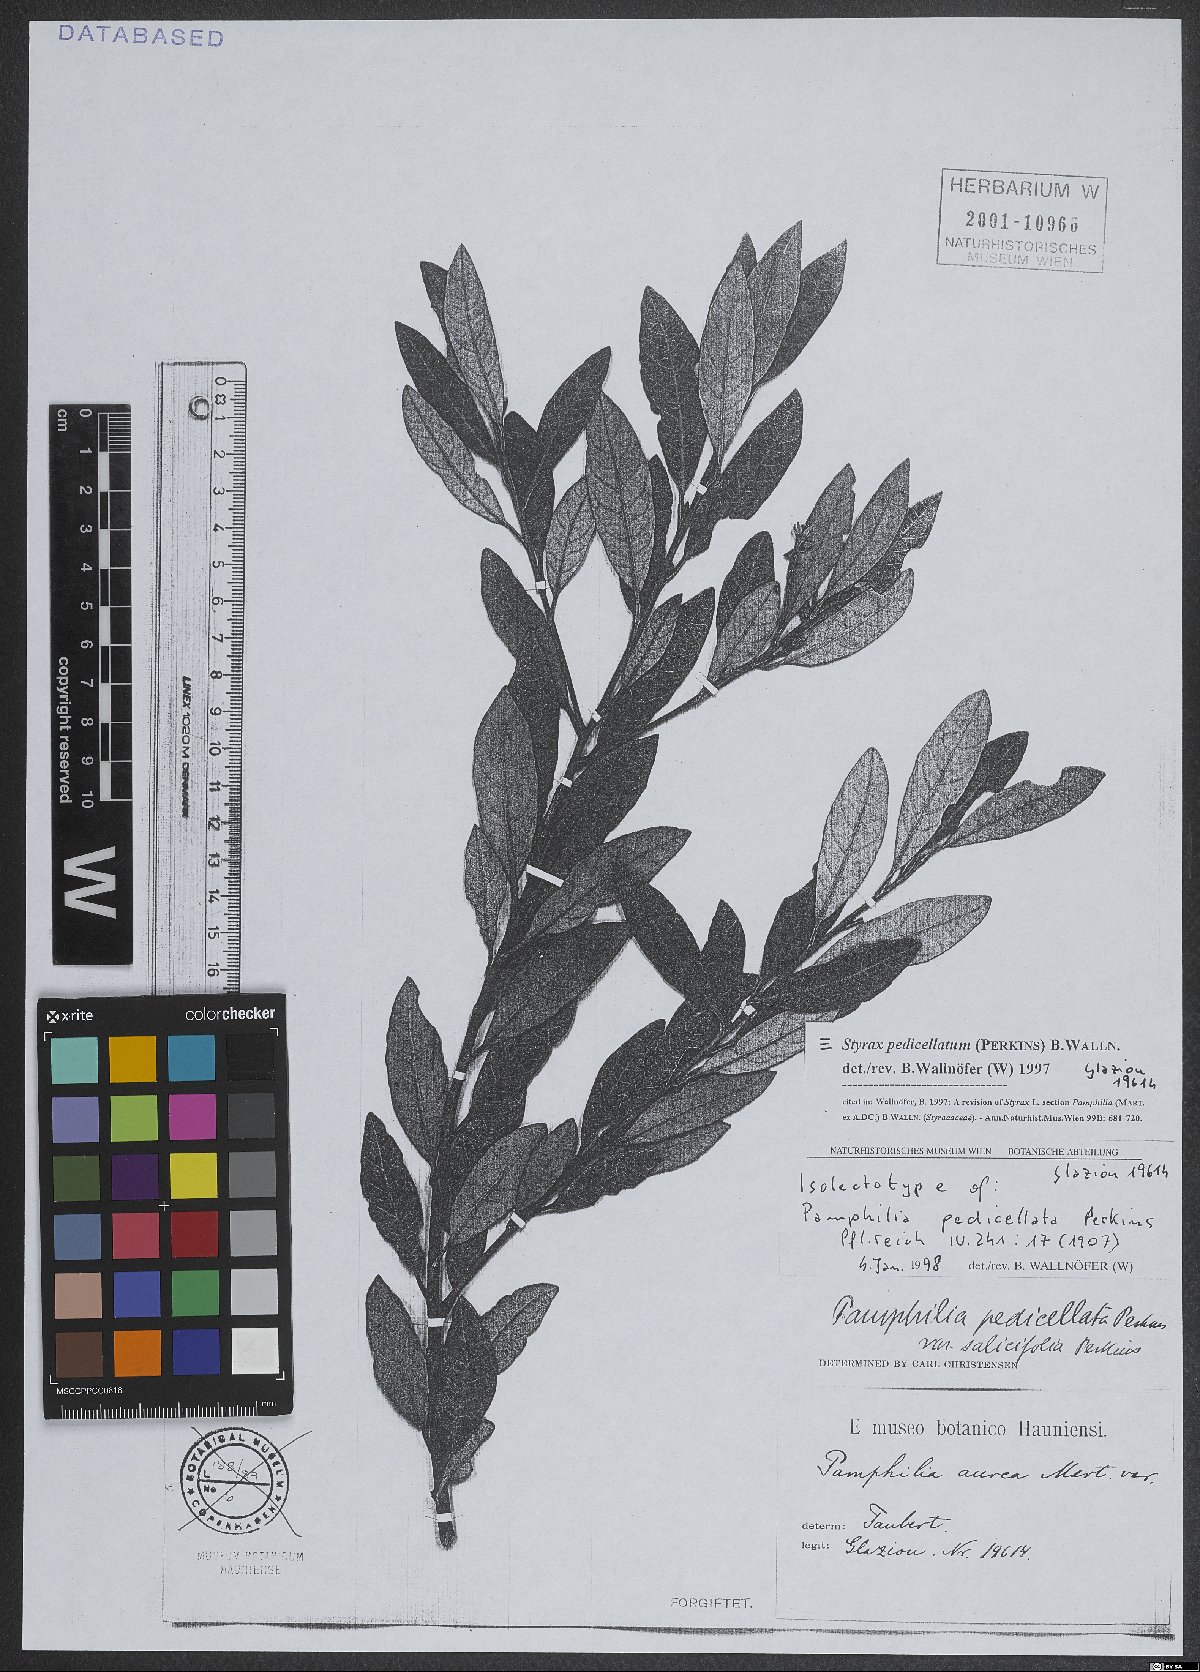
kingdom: Plantae
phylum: Tracheophyta
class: Magnoliopsida
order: Ericales
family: Styracaceae
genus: Styrax
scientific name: Styrax pedicellatus
